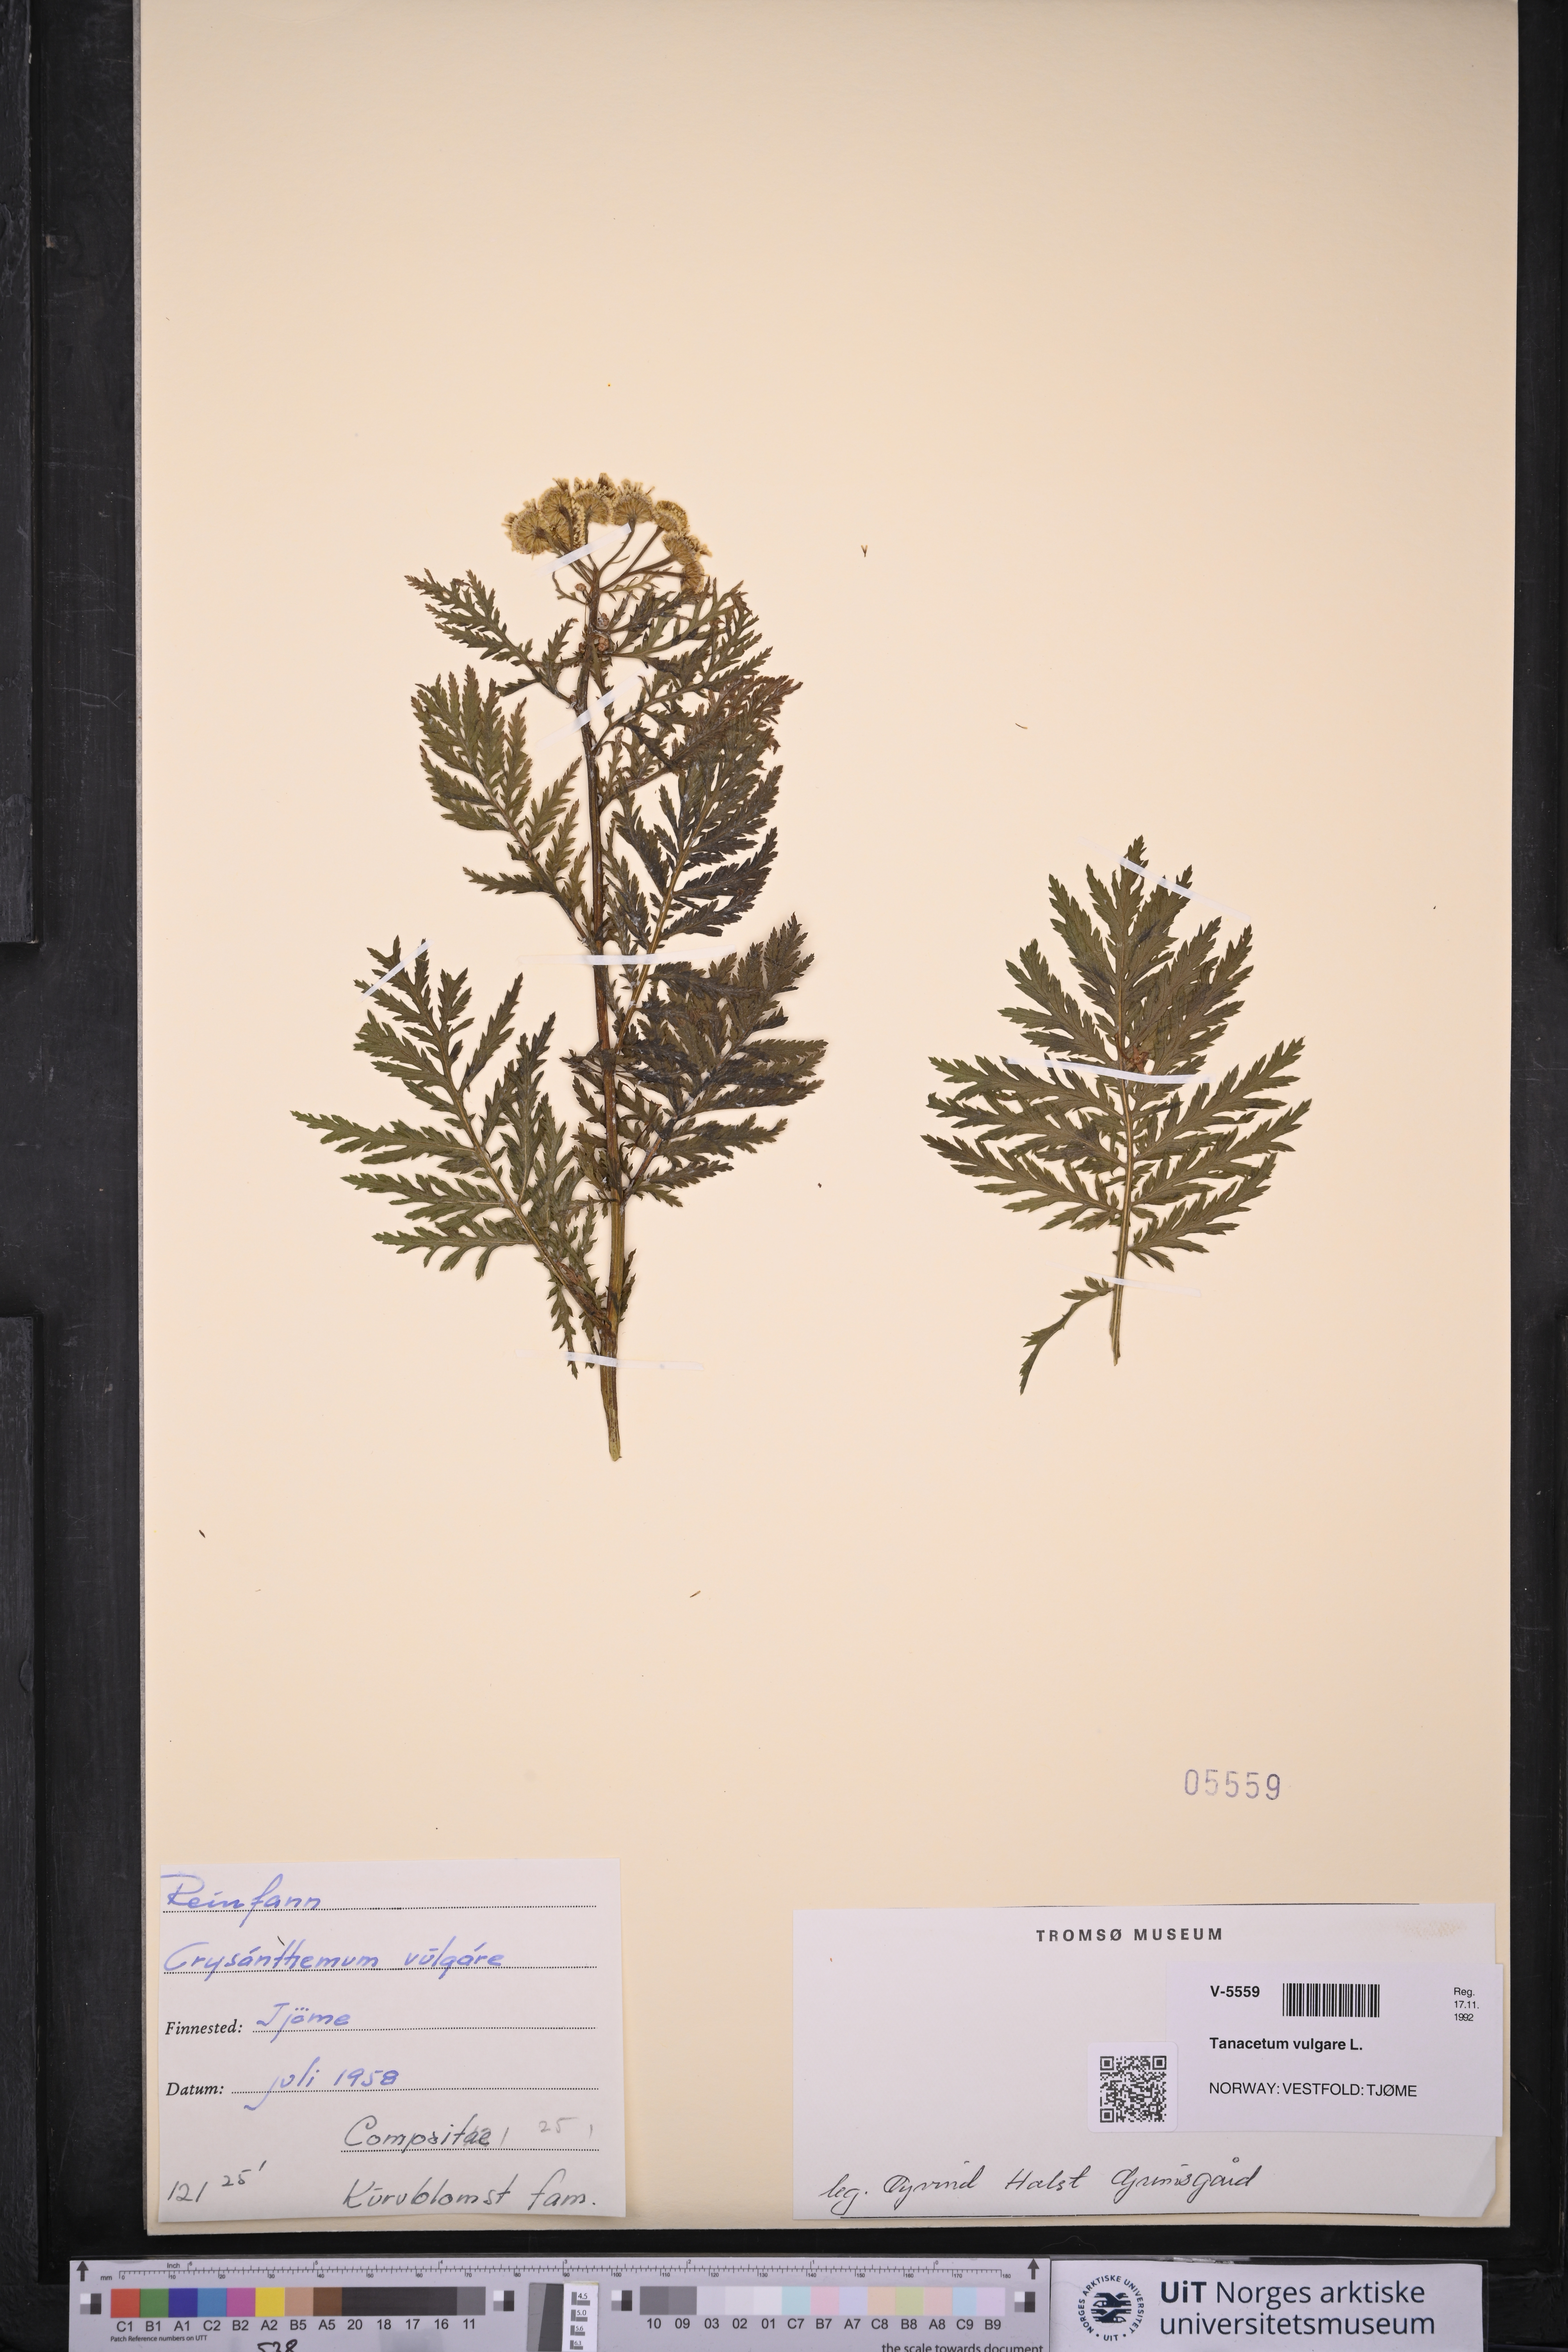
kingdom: Plantae
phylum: Tracheophyta
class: Magnoliopsida
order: Asterales
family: Asteraceae
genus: Tanacetum
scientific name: Tanacetum vulgare
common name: Common tansy
